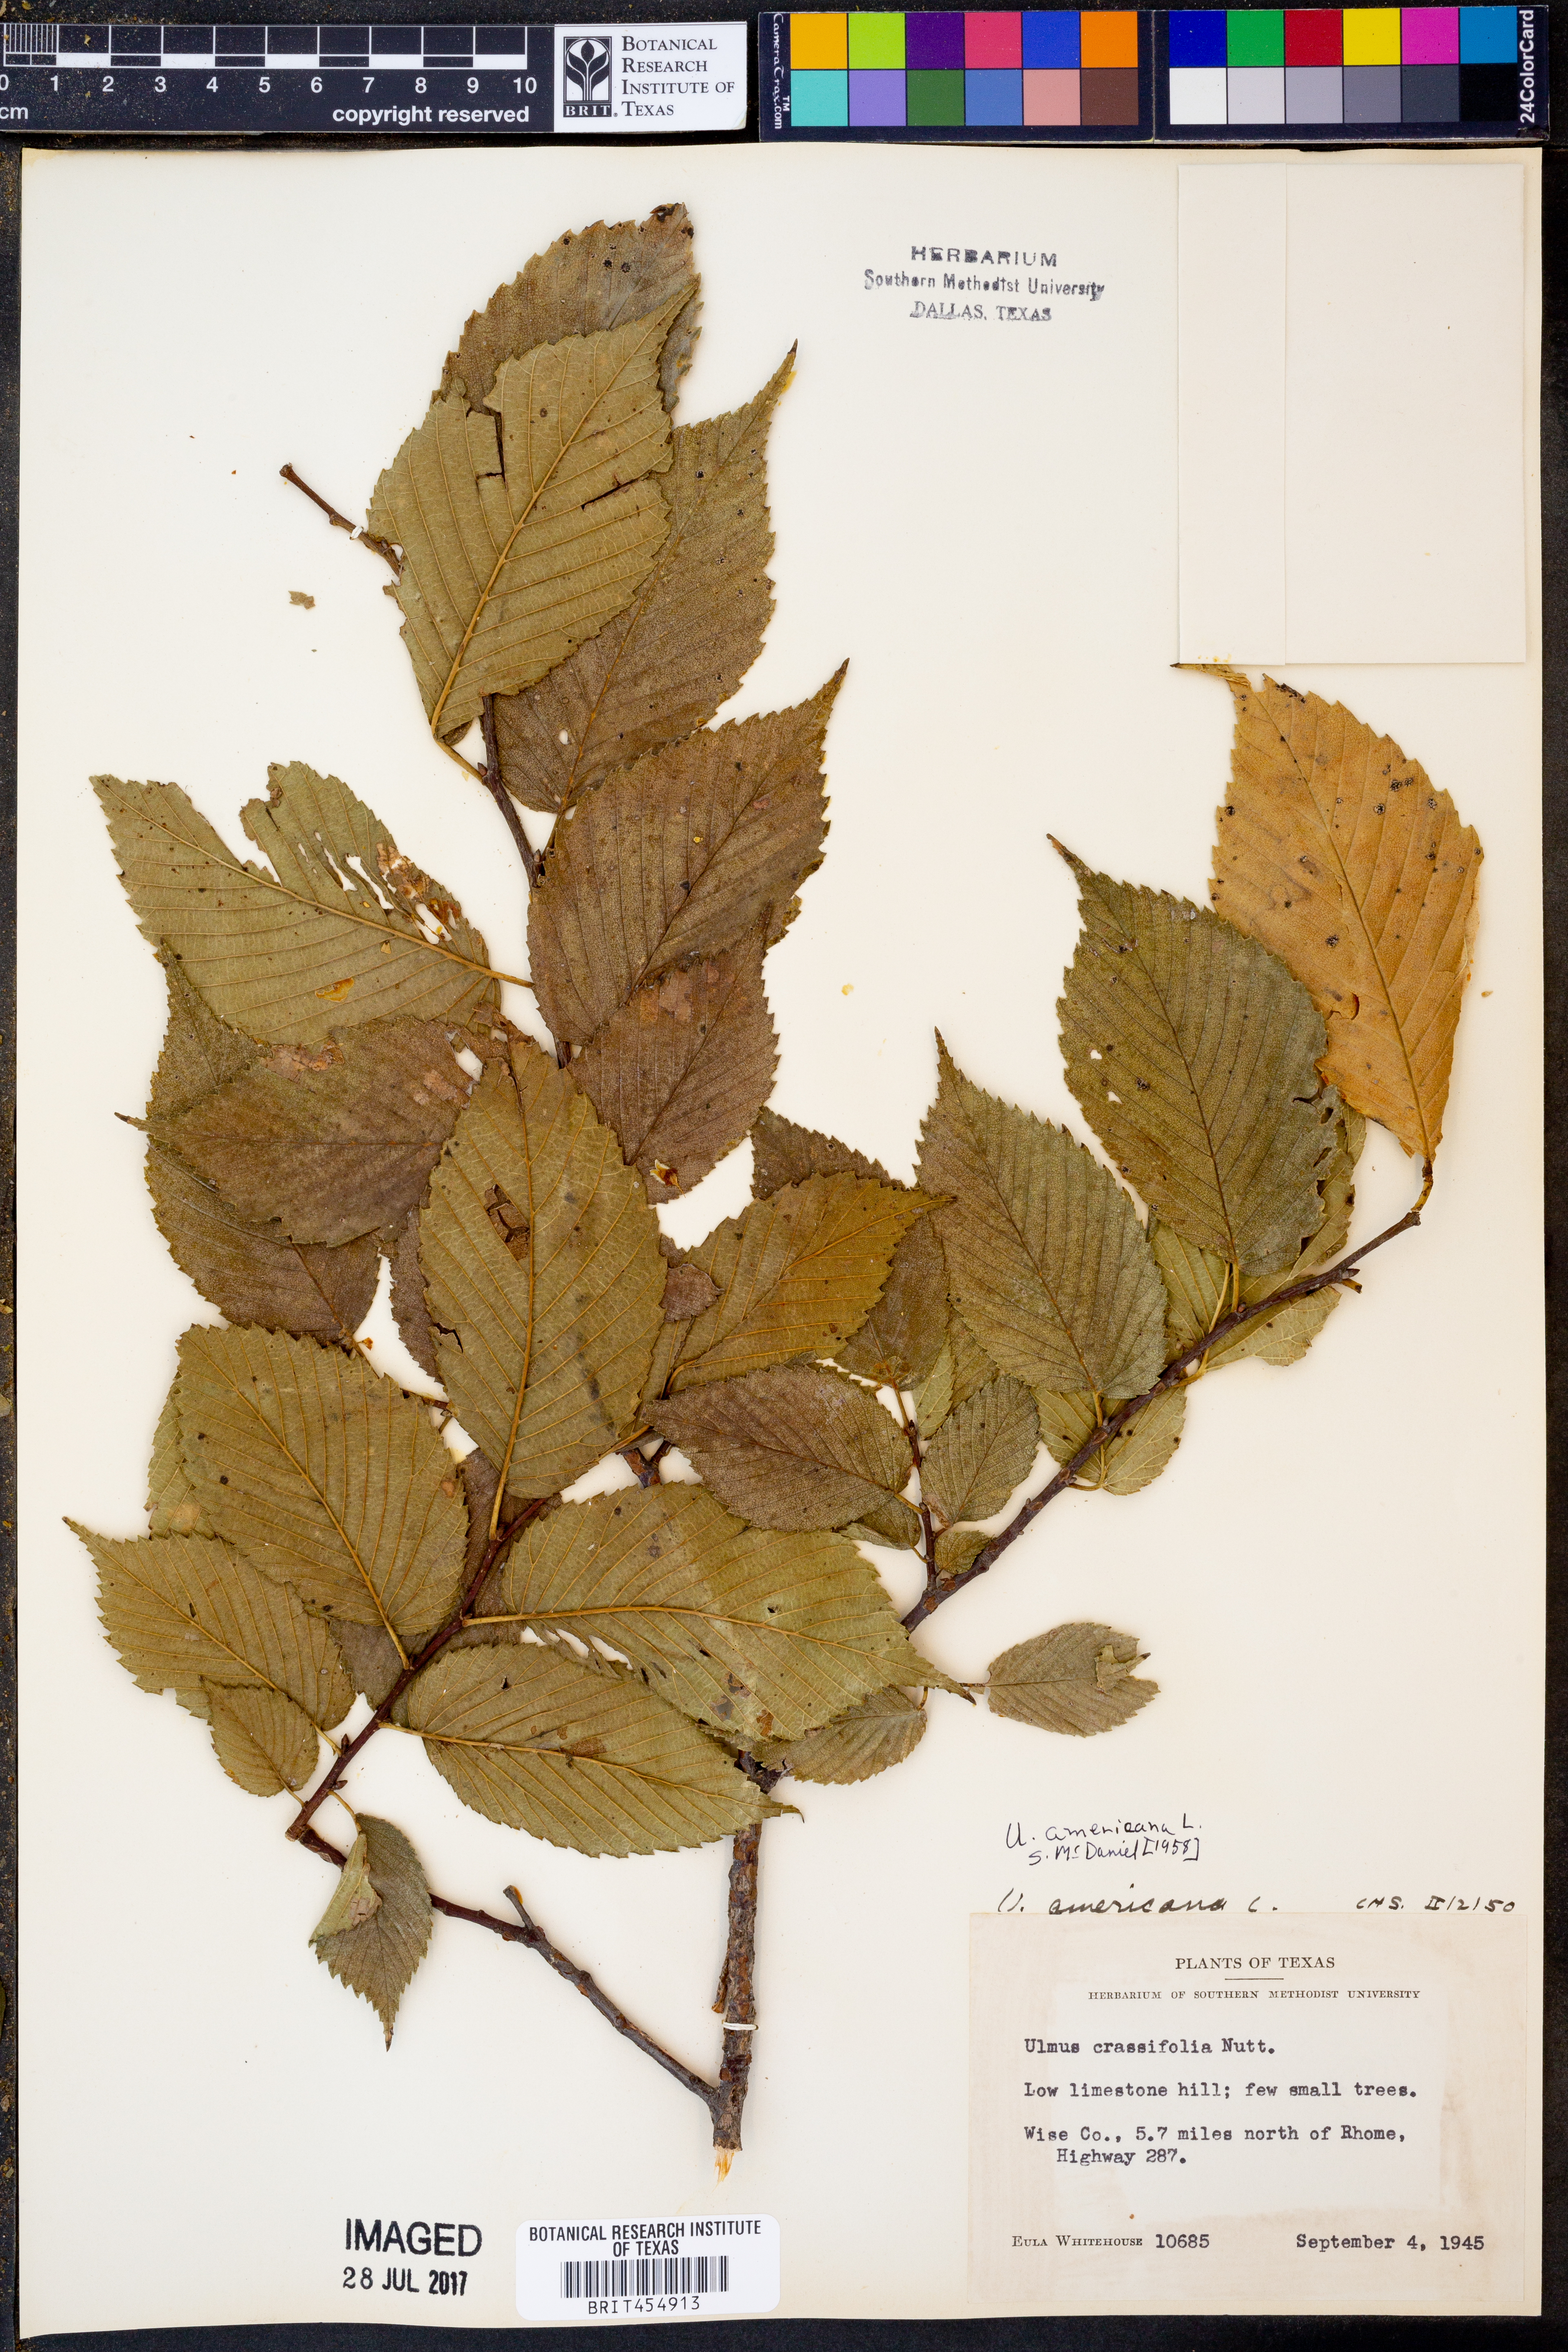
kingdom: Plantae
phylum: Tracheophyta
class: Magnoliopsida
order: Rosales
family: Ulmaceae
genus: Ulmus
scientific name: Ulmus americana
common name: American elm
